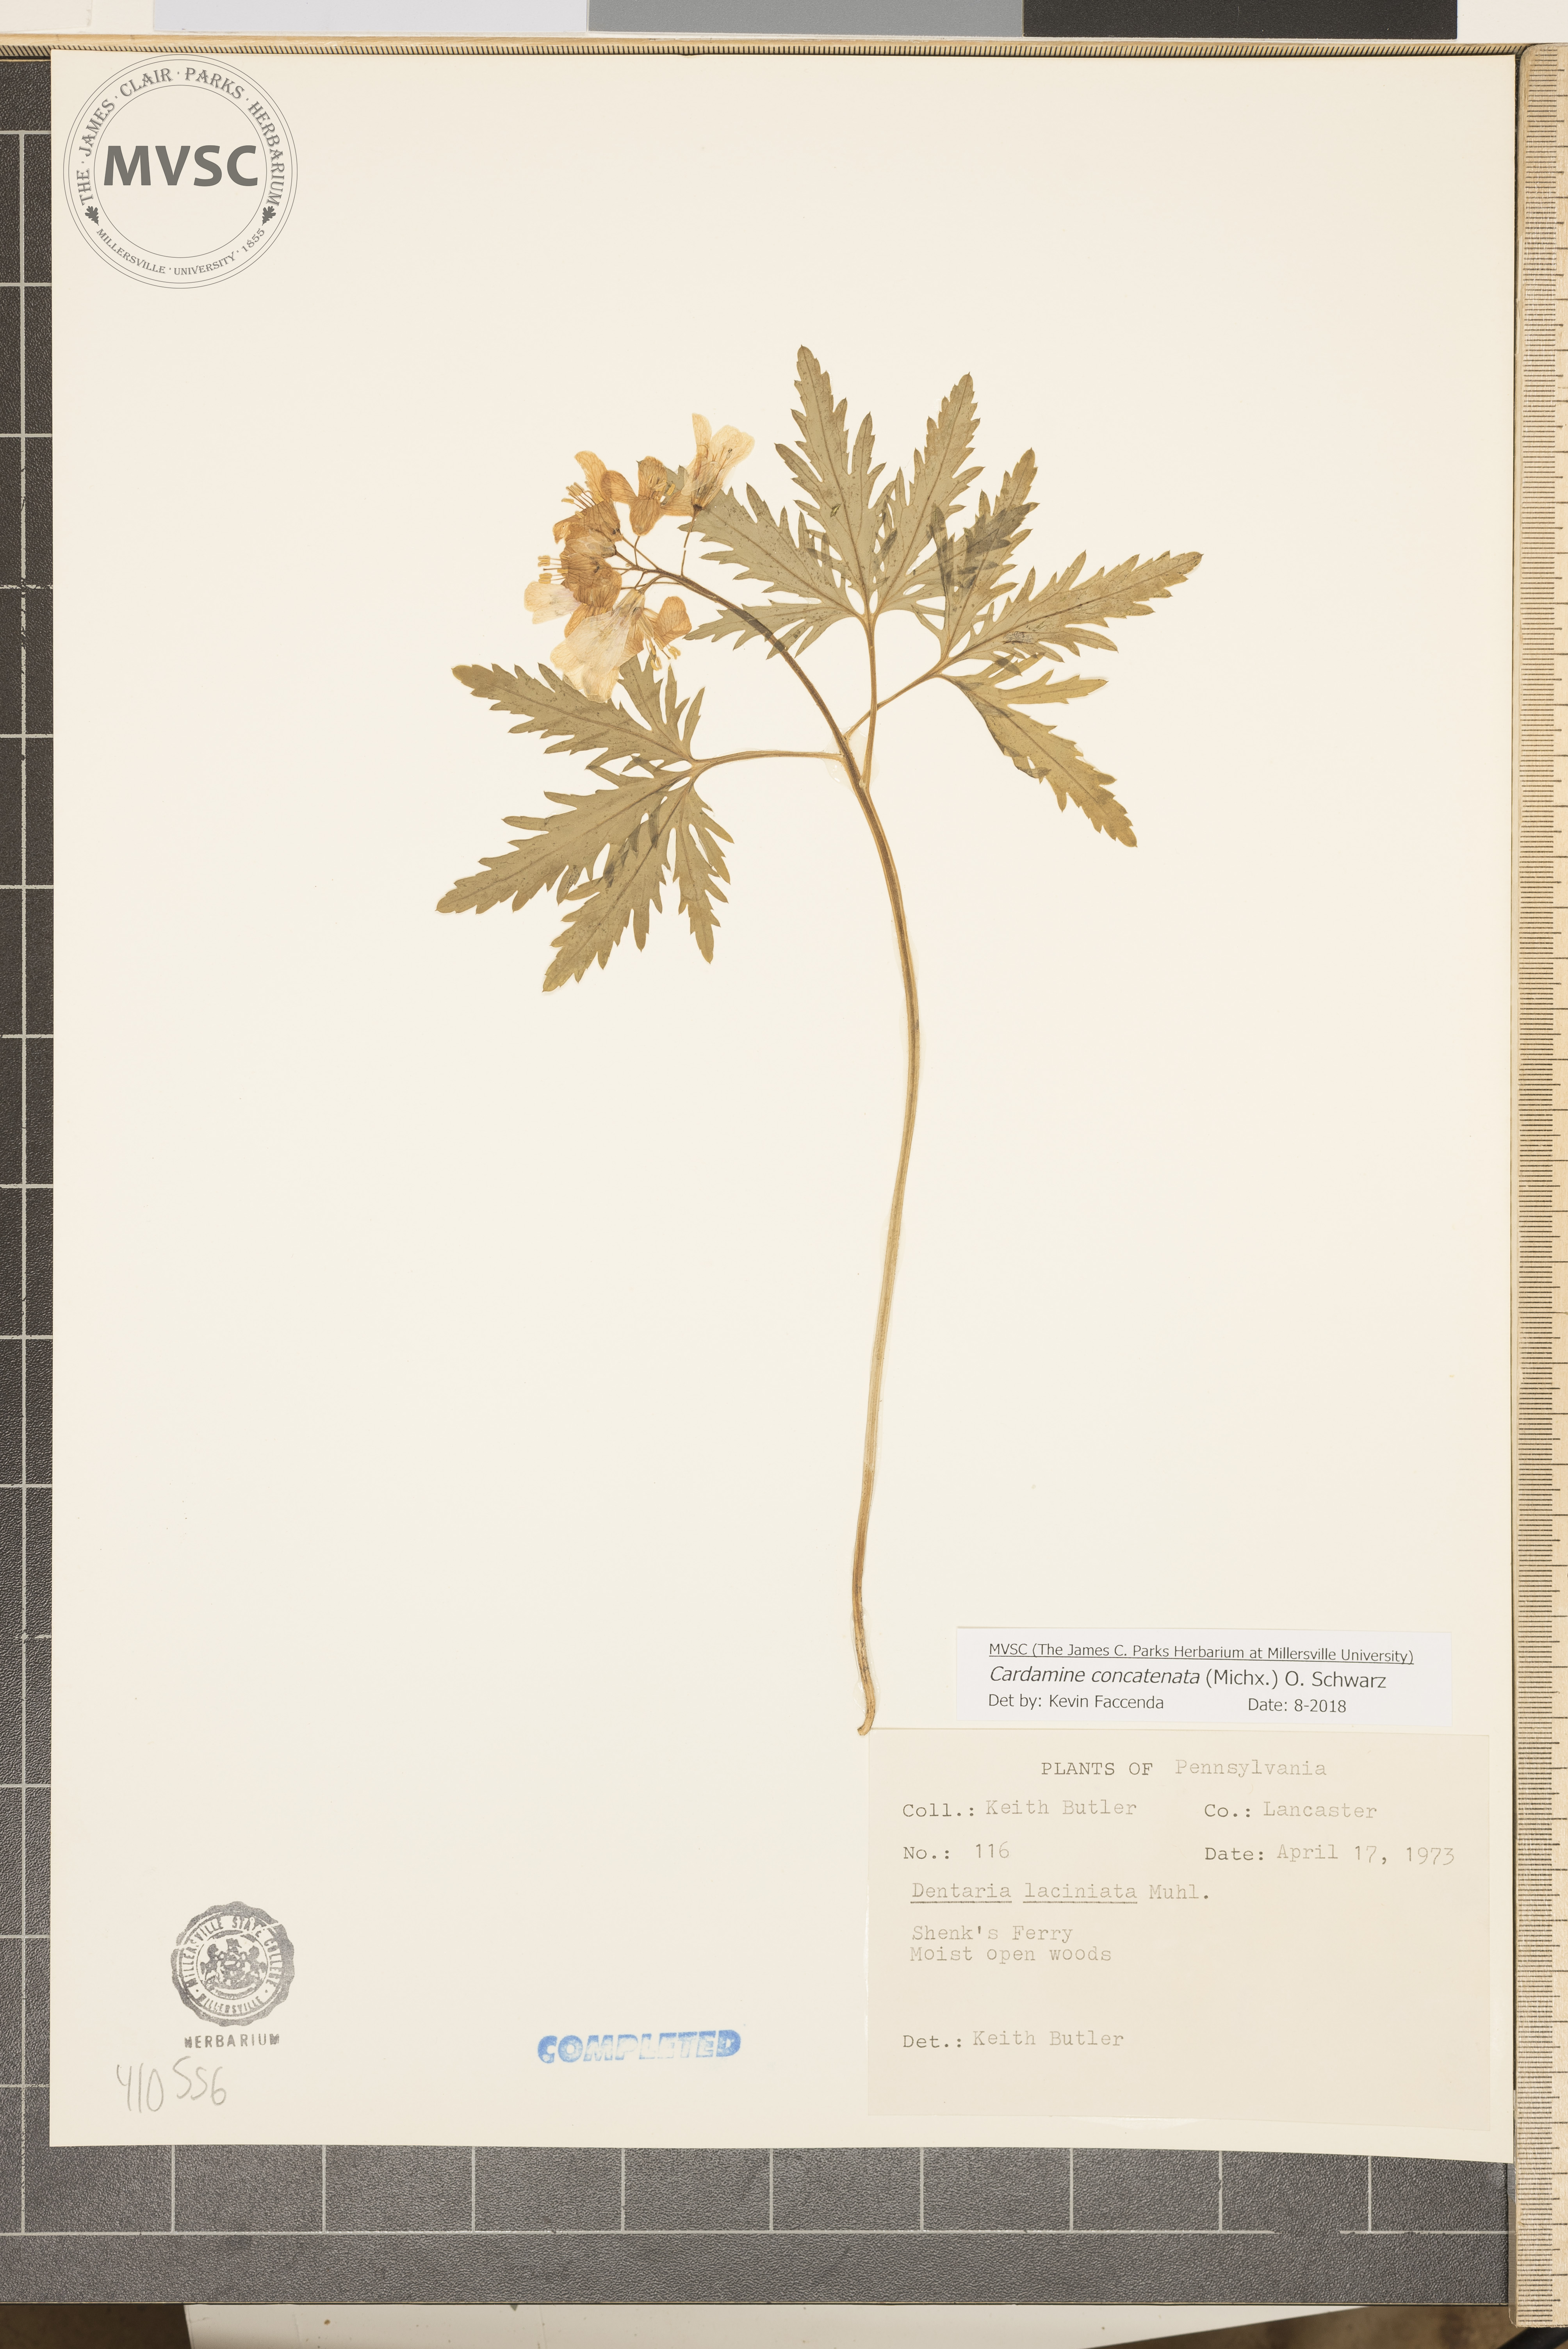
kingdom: Plantae
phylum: Tracheophyta
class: Magnoliopsida
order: Brassicales
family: Brassicaceae
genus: Cardamine
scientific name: Cardamine concatenata
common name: Cut-leaf toothcup
